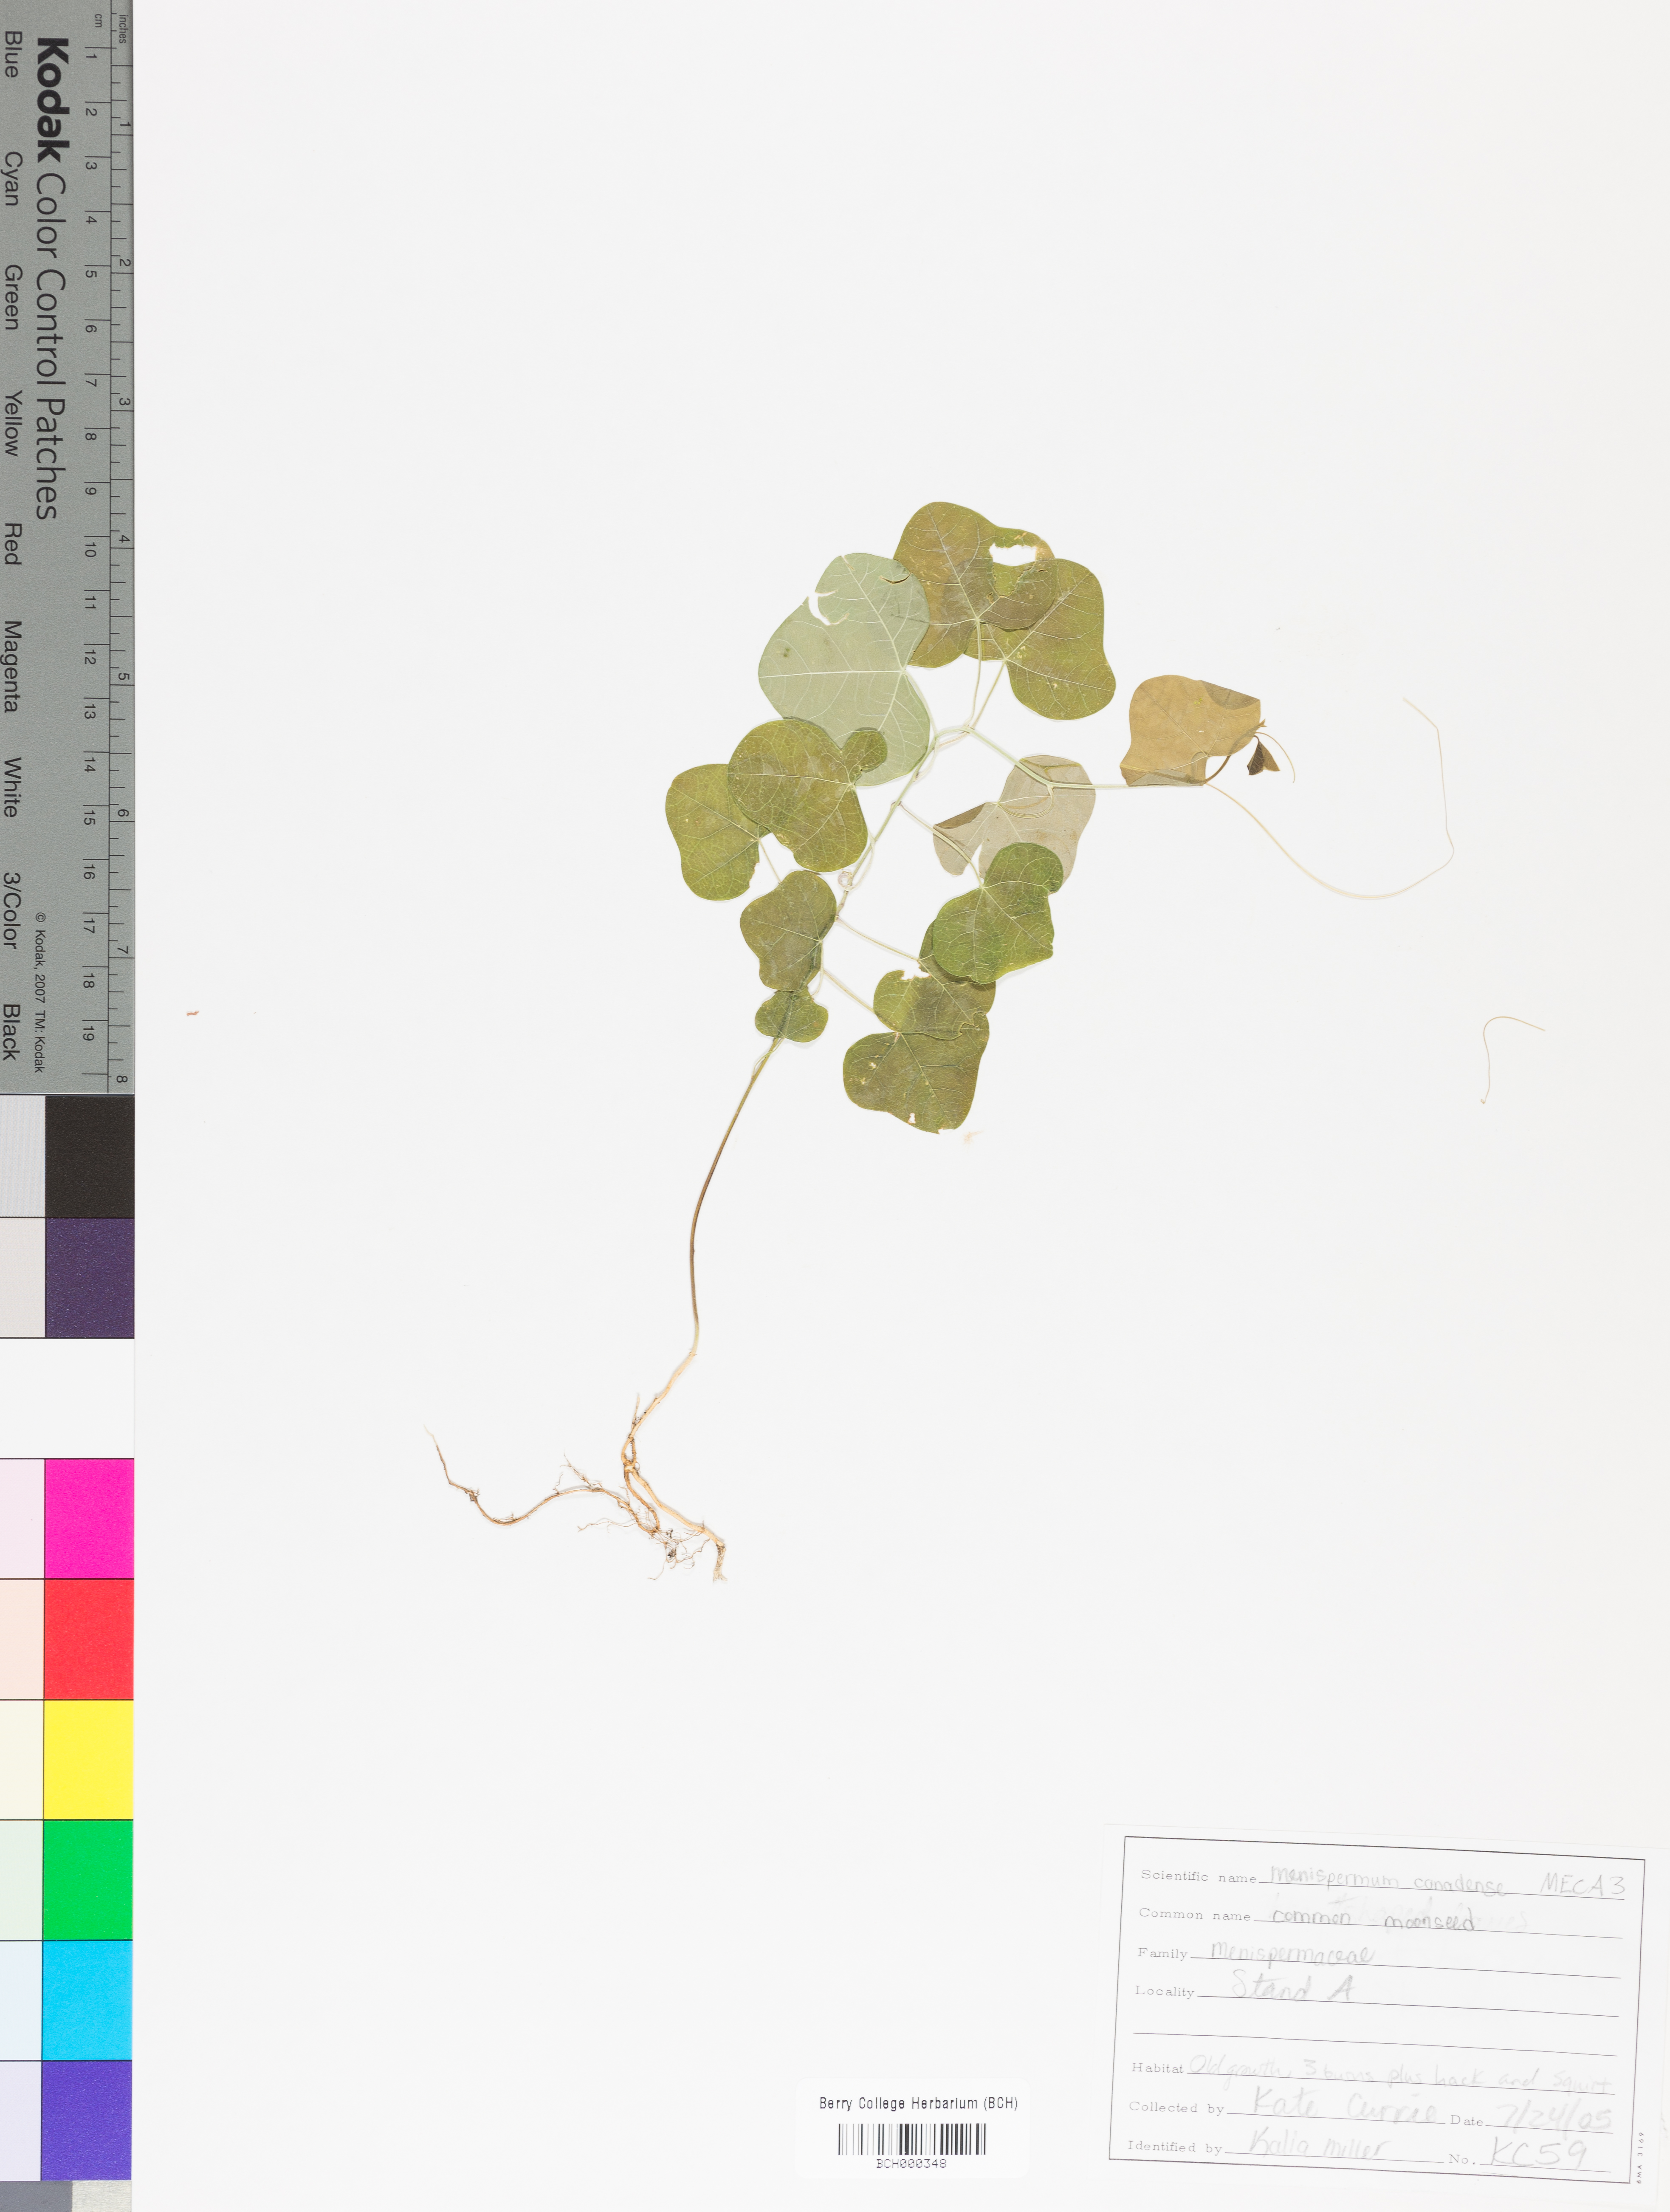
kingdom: Plantae
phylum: Tracheophyta
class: Magnoliopsida
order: Ranunculales
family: Menispermaceae
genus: Menispermum
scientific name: Menispermum canadense
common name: Moonseed
